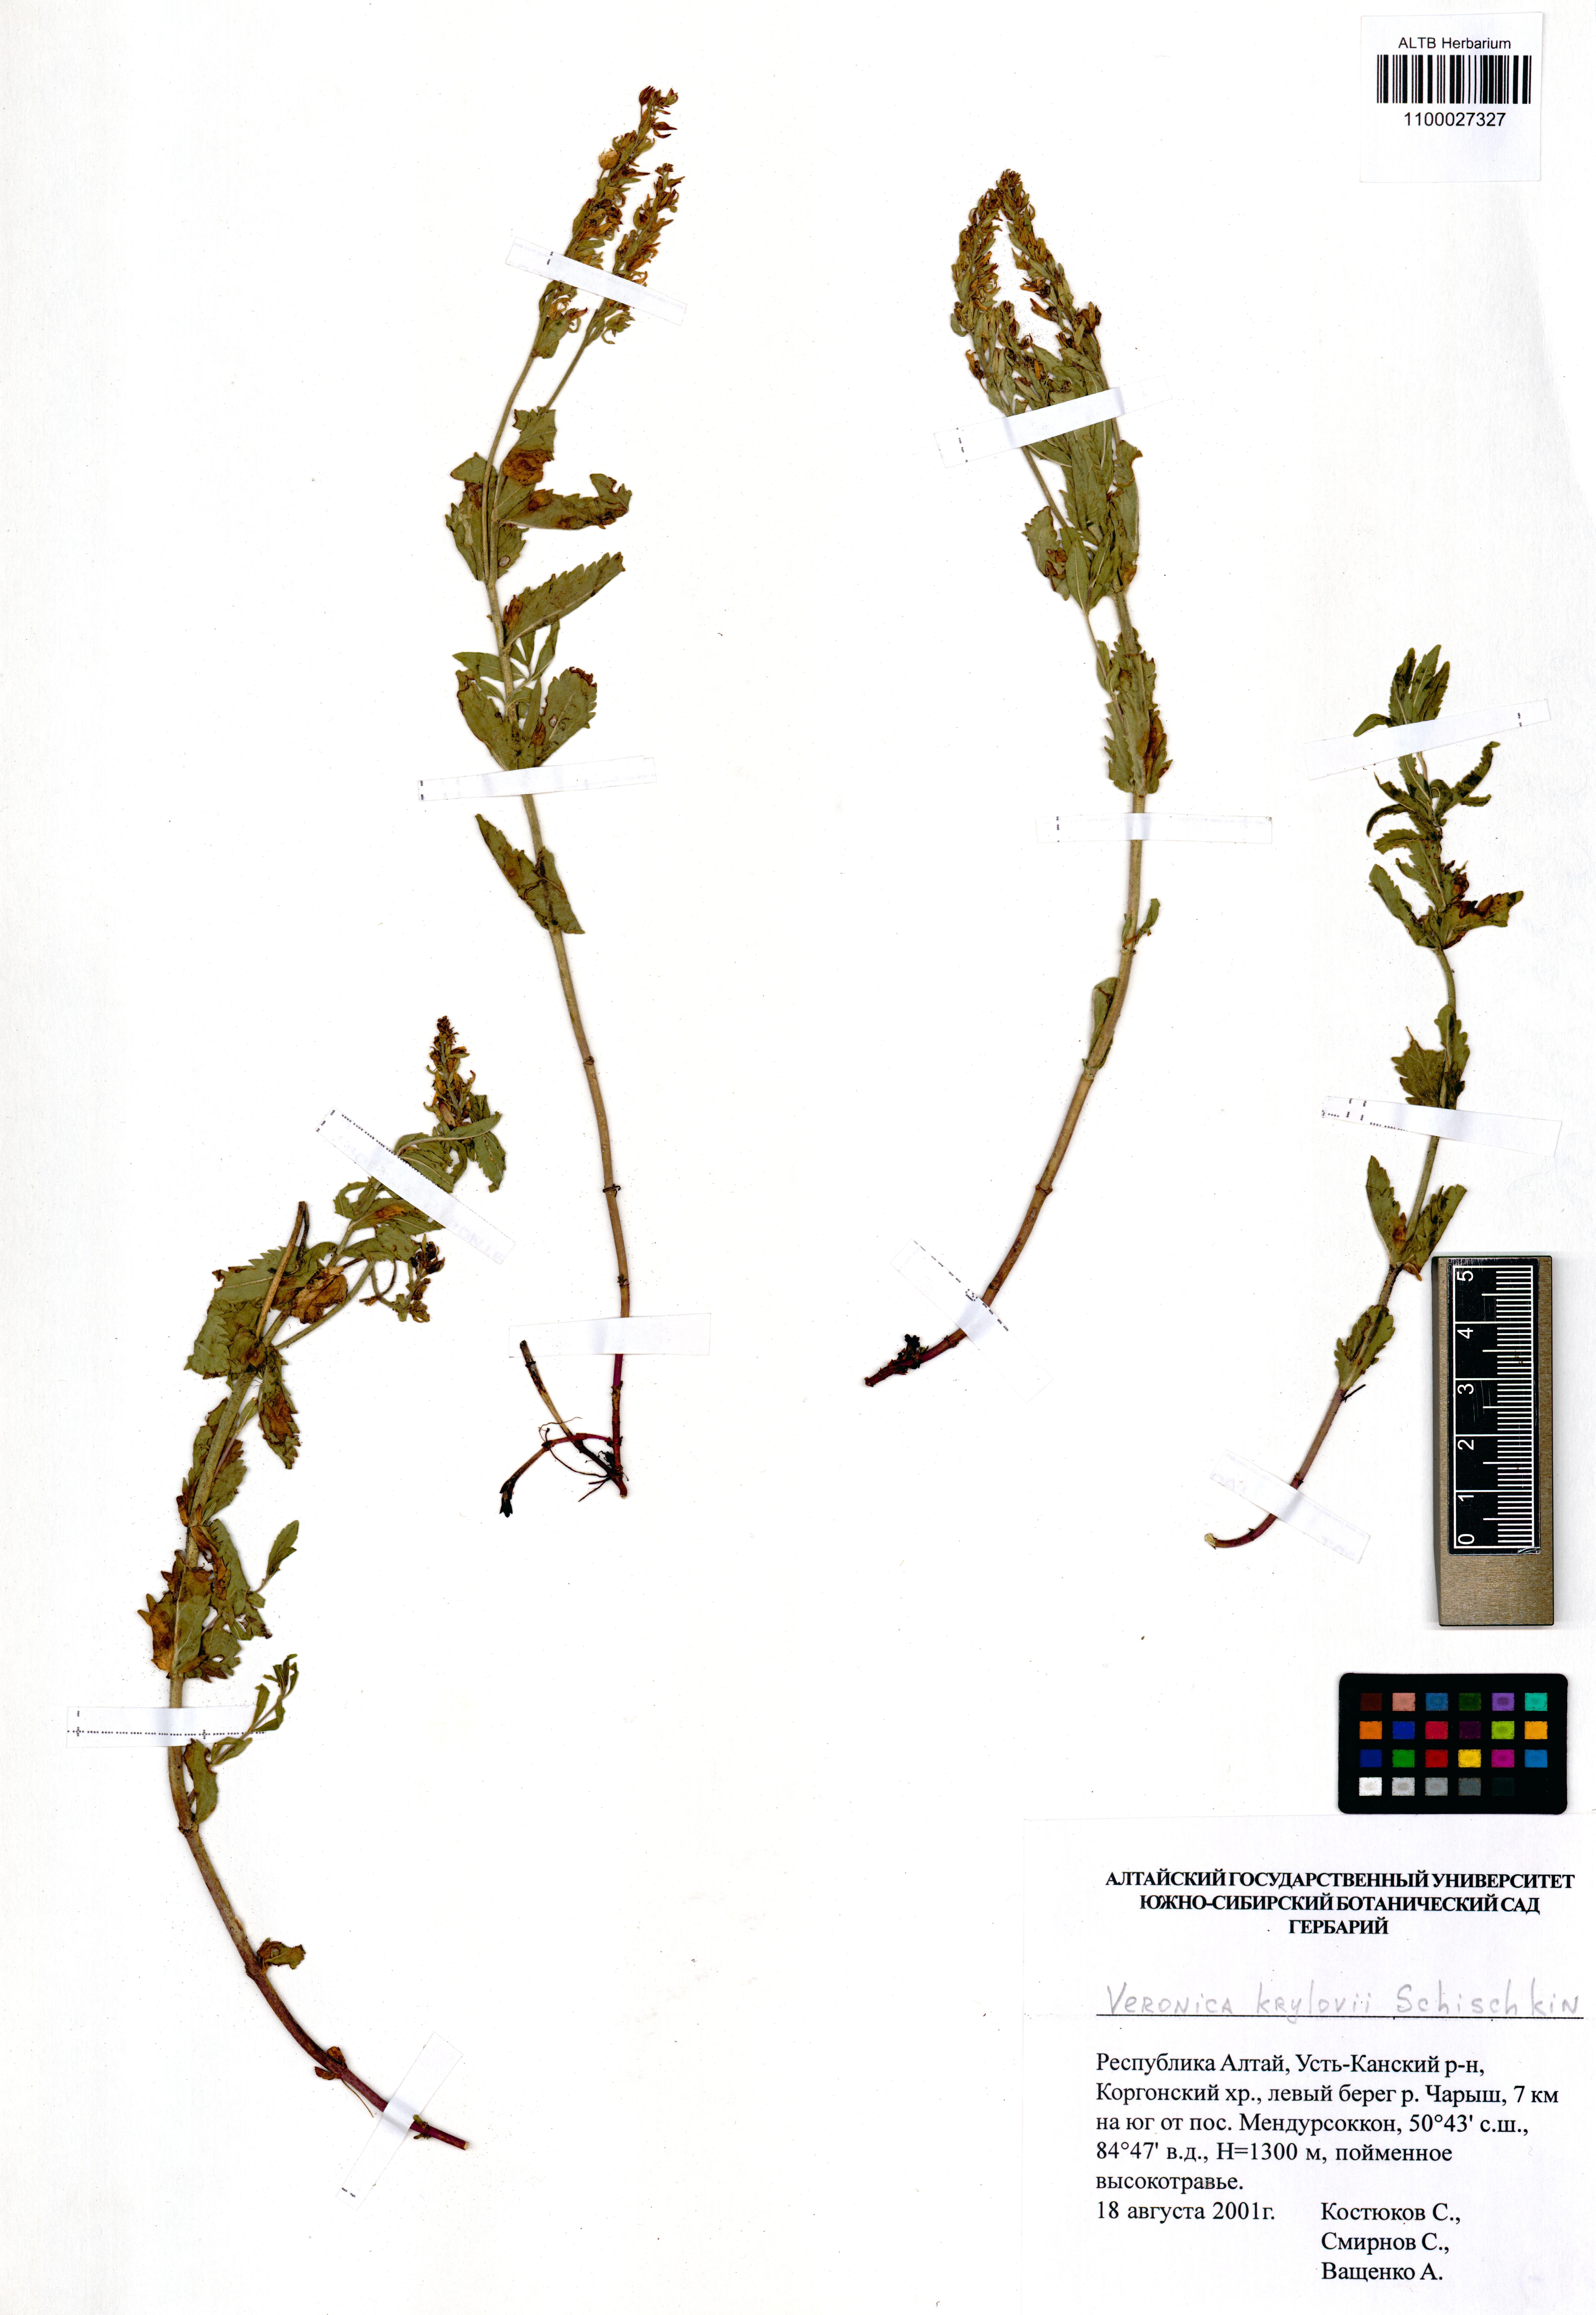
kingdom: Plantae
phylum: Tracheophyta
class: Magnoliopsida
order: Lamiales
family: Plantaginaceae
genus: Veronica
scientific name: Veronica krylovii
